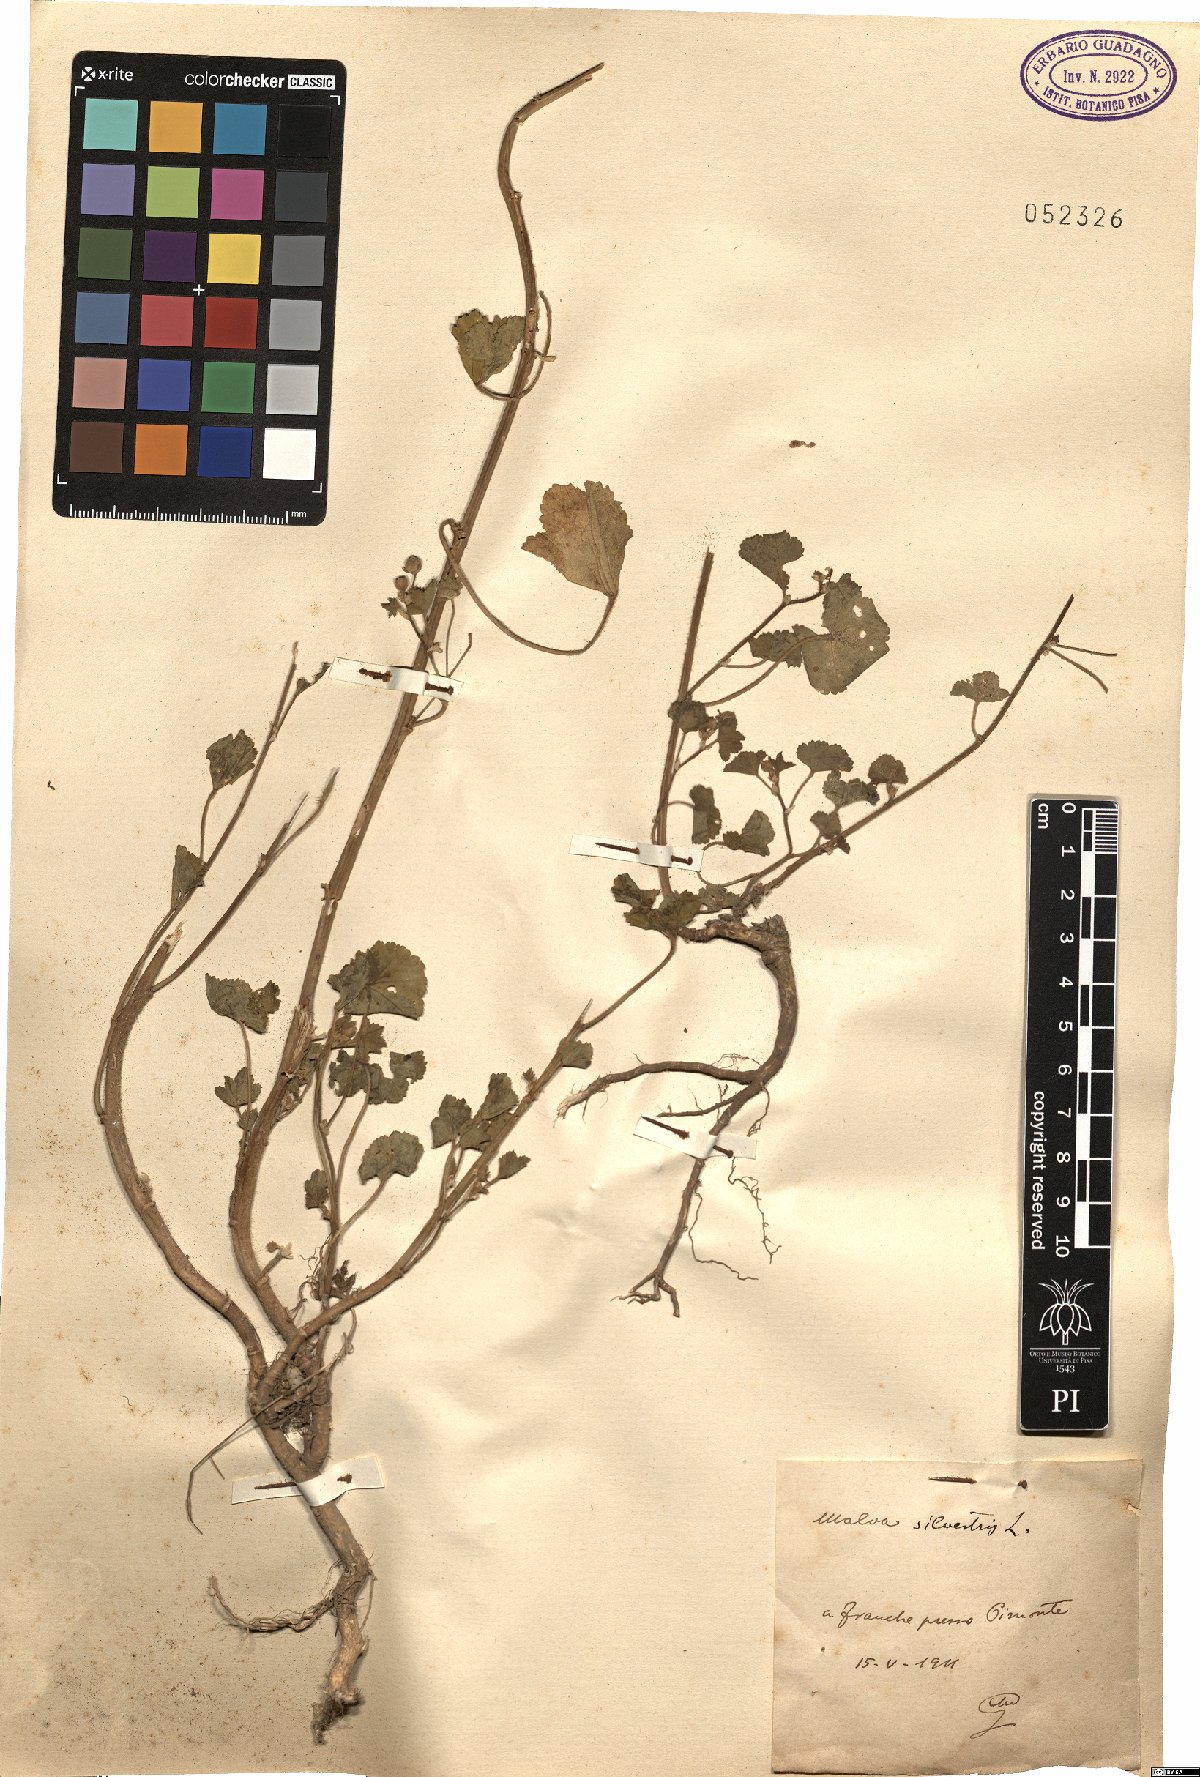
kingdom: Plantae
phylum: Tracheophyta
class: Magnoliopsida
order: Malvales
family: Malvaceae
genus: Malva
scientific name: Malva sylvestris
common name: Common mallow
